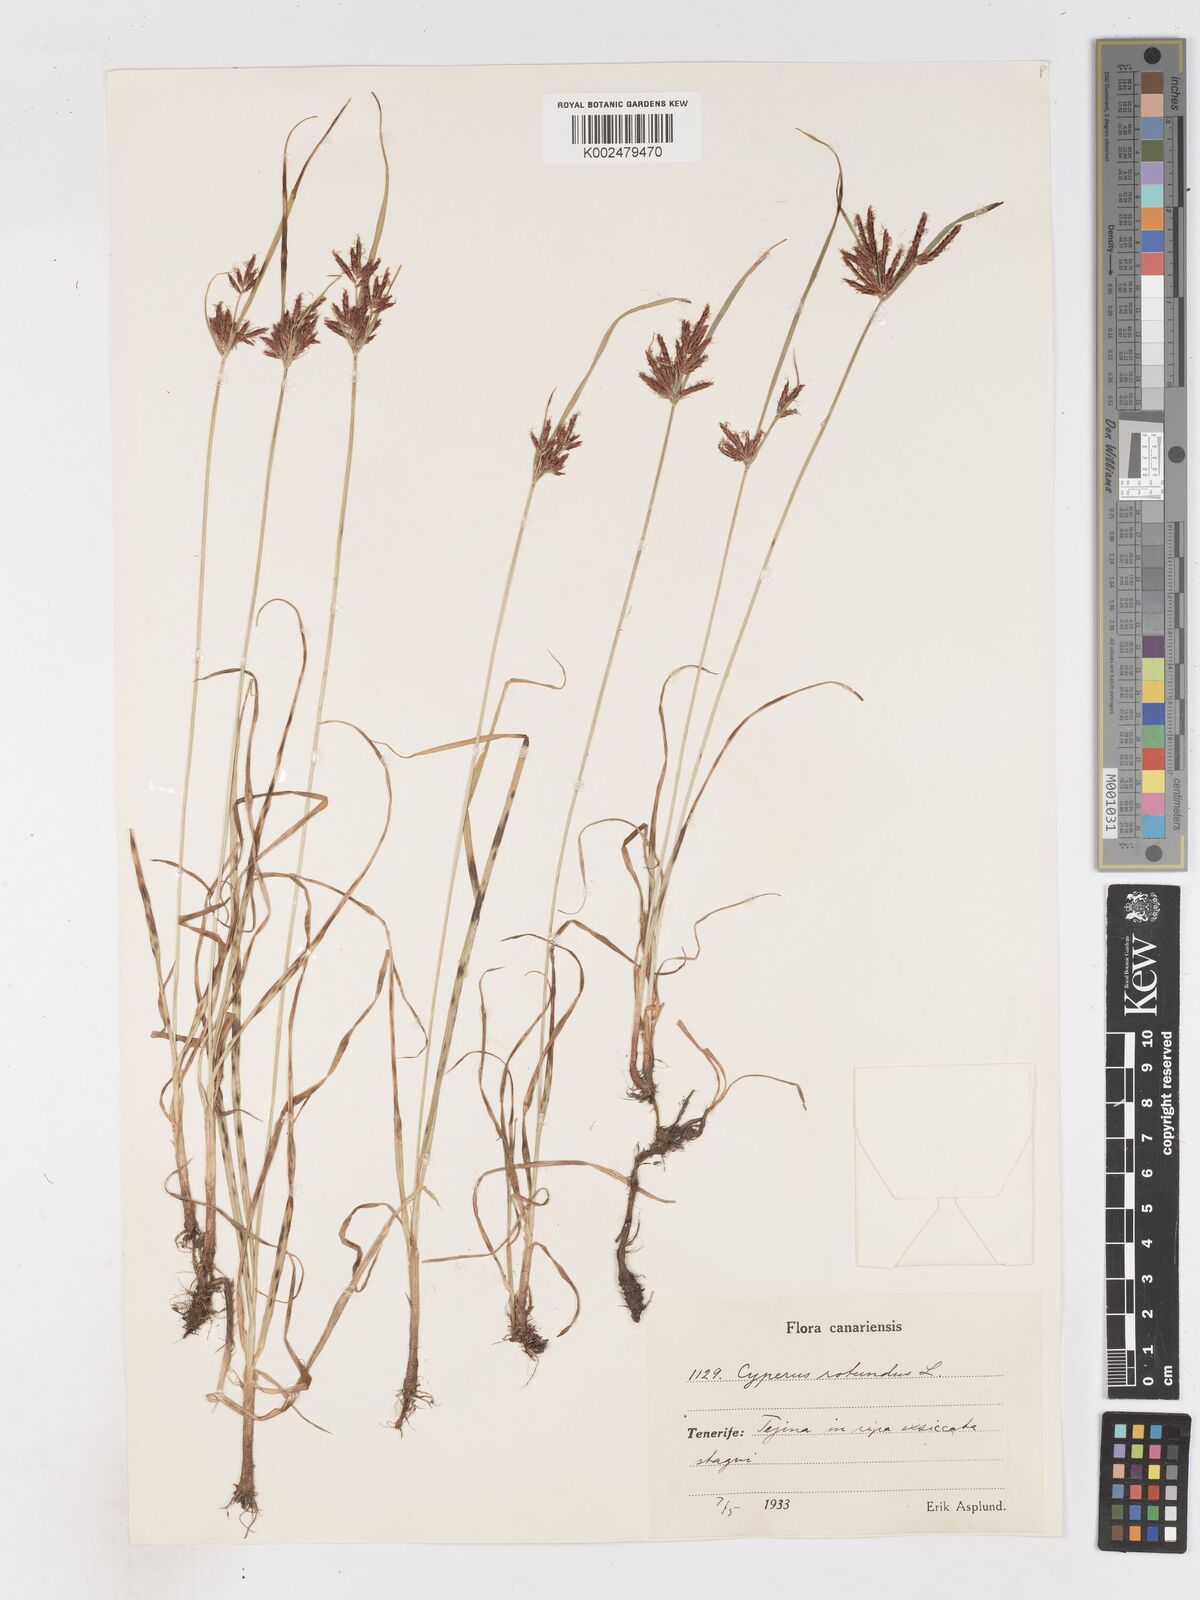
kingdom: Plantae
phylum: Tracheophyta
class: Liliopsida
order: Poales
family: Cyperaceae
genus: Cyperus
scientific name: Cyperus rotundus
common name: Nutgrass
